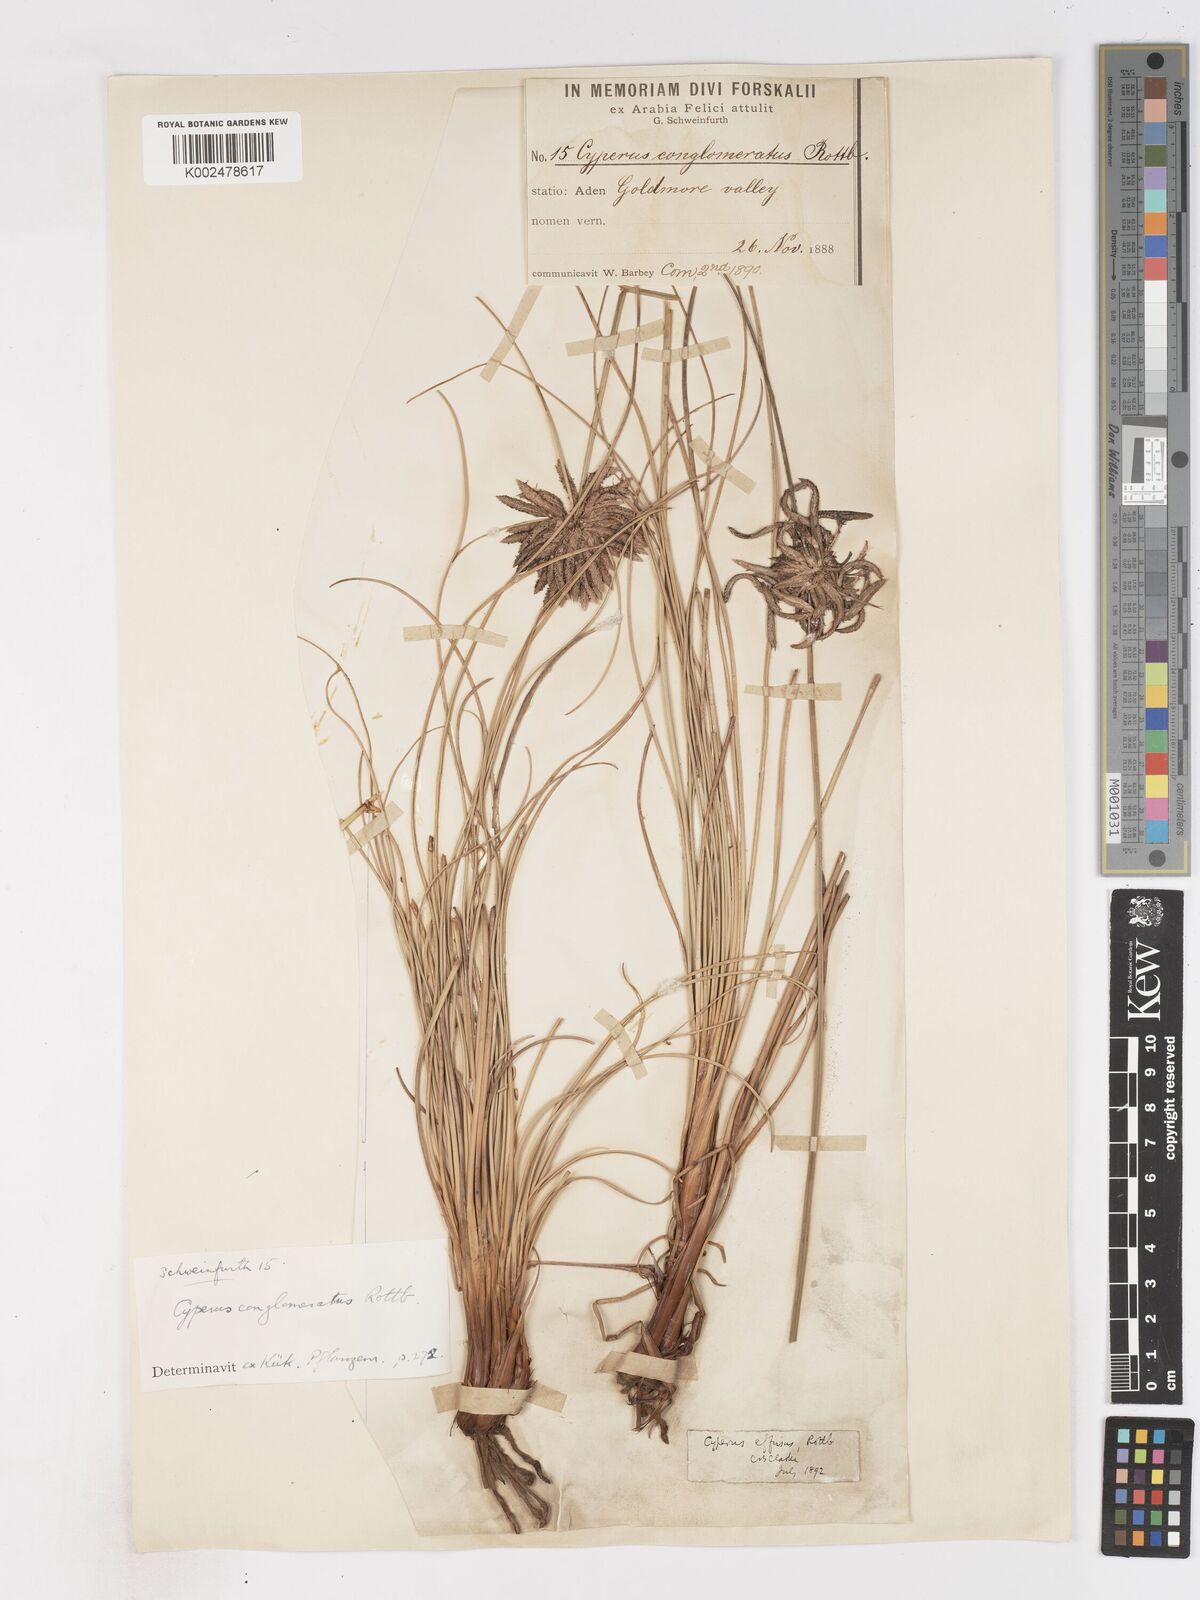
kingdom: Plantae
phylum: Tracheophyta
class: Liliopsida
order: Poales
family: Cyperaceae
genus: Cyperus
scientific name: Cyperus conglomeratus
